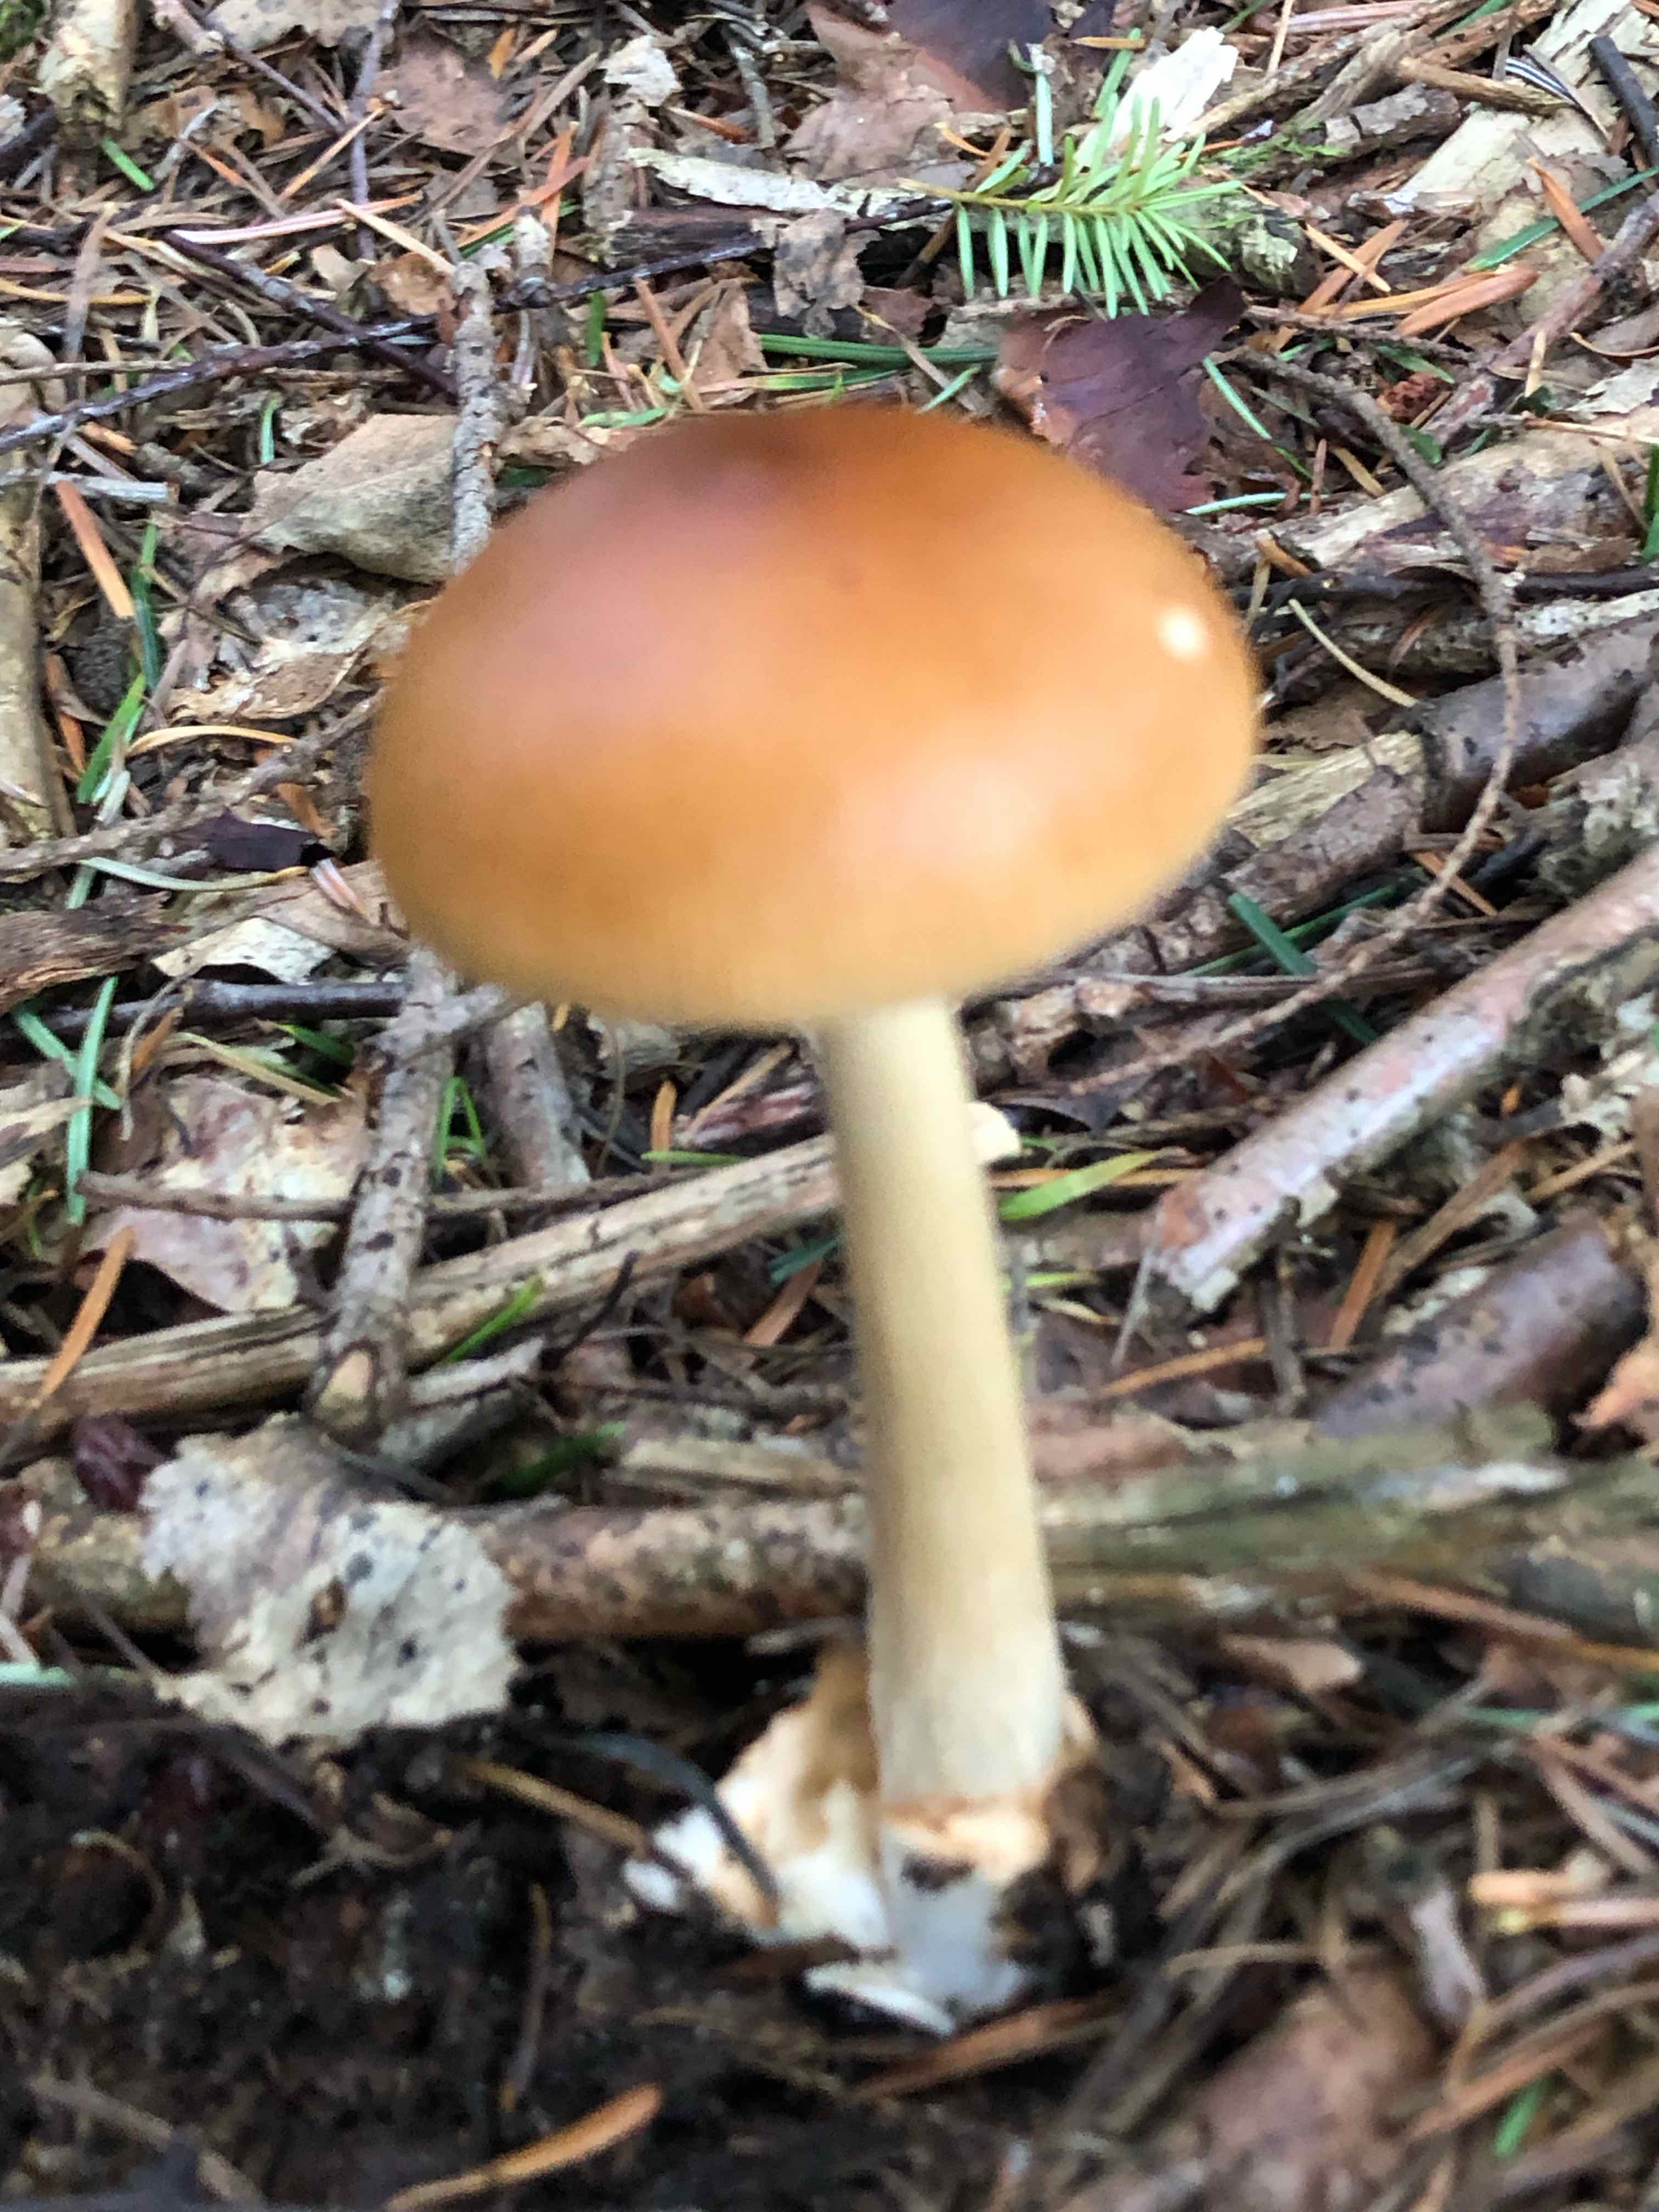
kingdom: Fungi
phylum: Basidiomycota
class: Agaricomycetes
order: Agaricales
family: Amanitaceae
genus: Amanita
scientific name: Amanita fulva
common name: brun kam-fluesvamp
